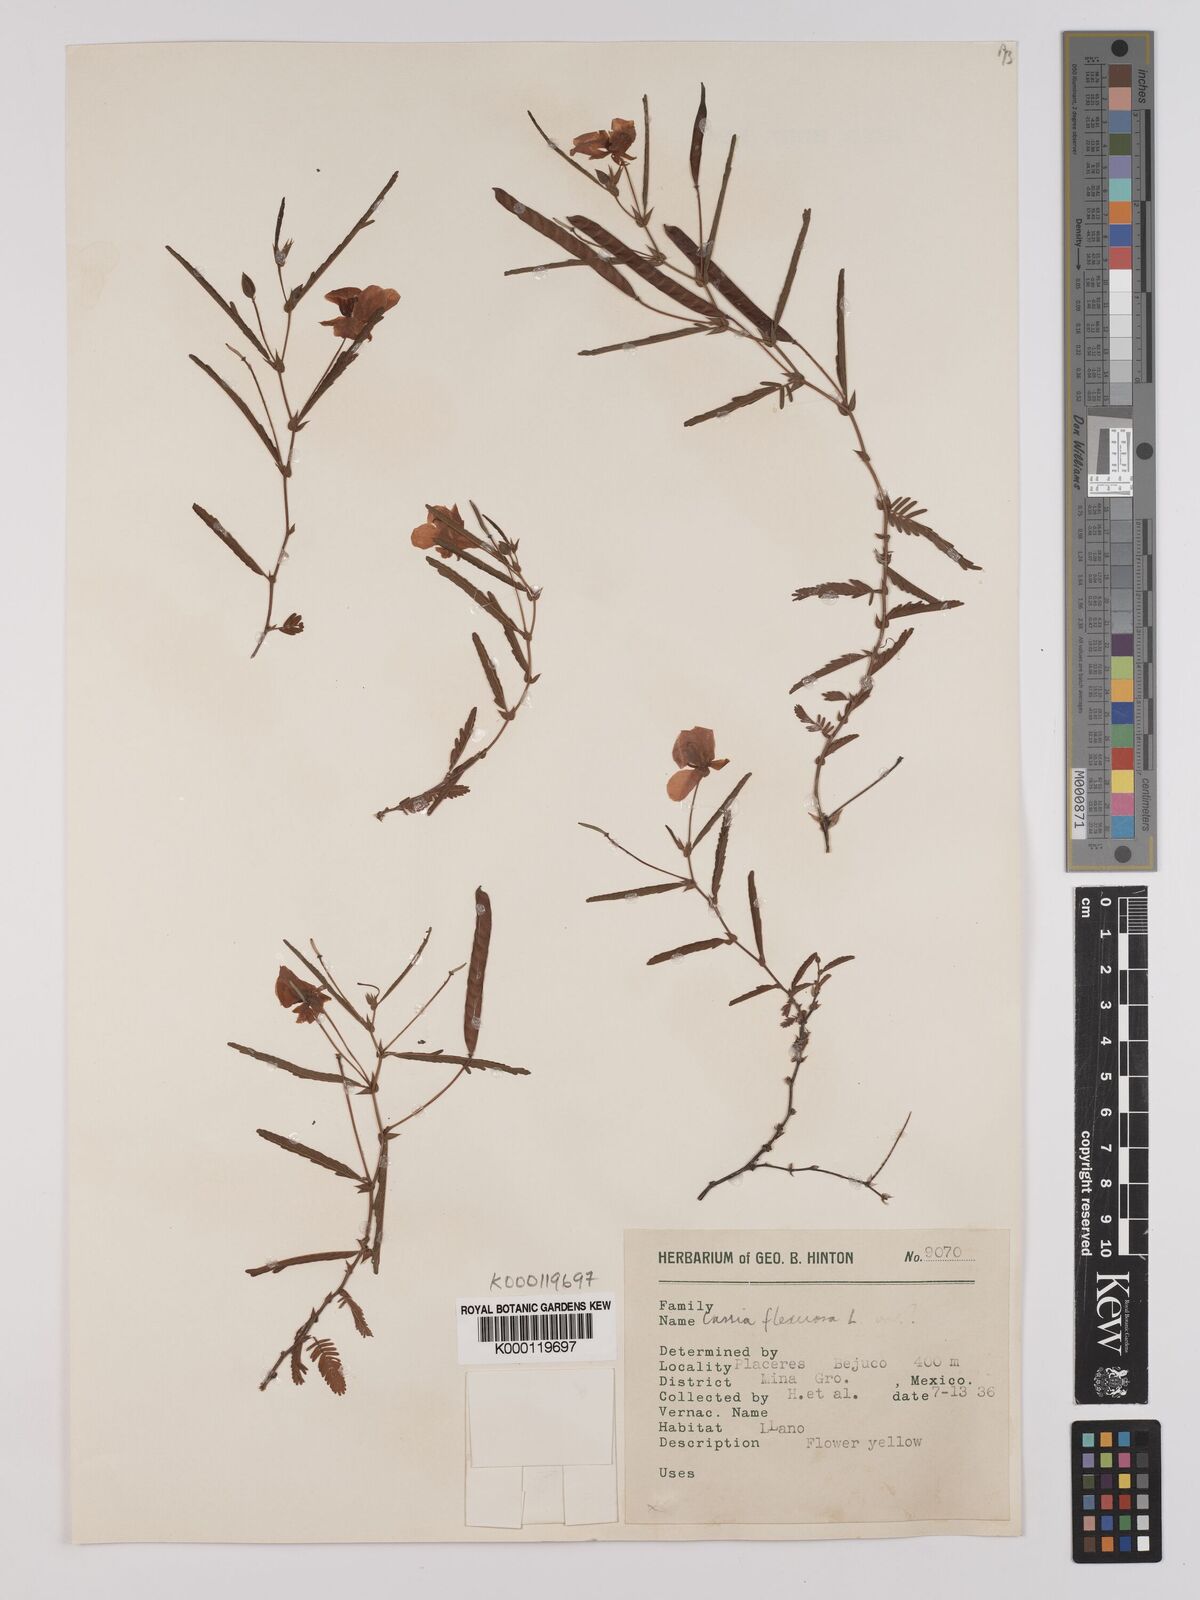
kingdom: Plantae
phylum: Tracheophyta
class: Magnoliopsida
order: Fabales
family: Fabaceae
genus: Chamaecrista
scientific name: Chamaecrista flexuosa
